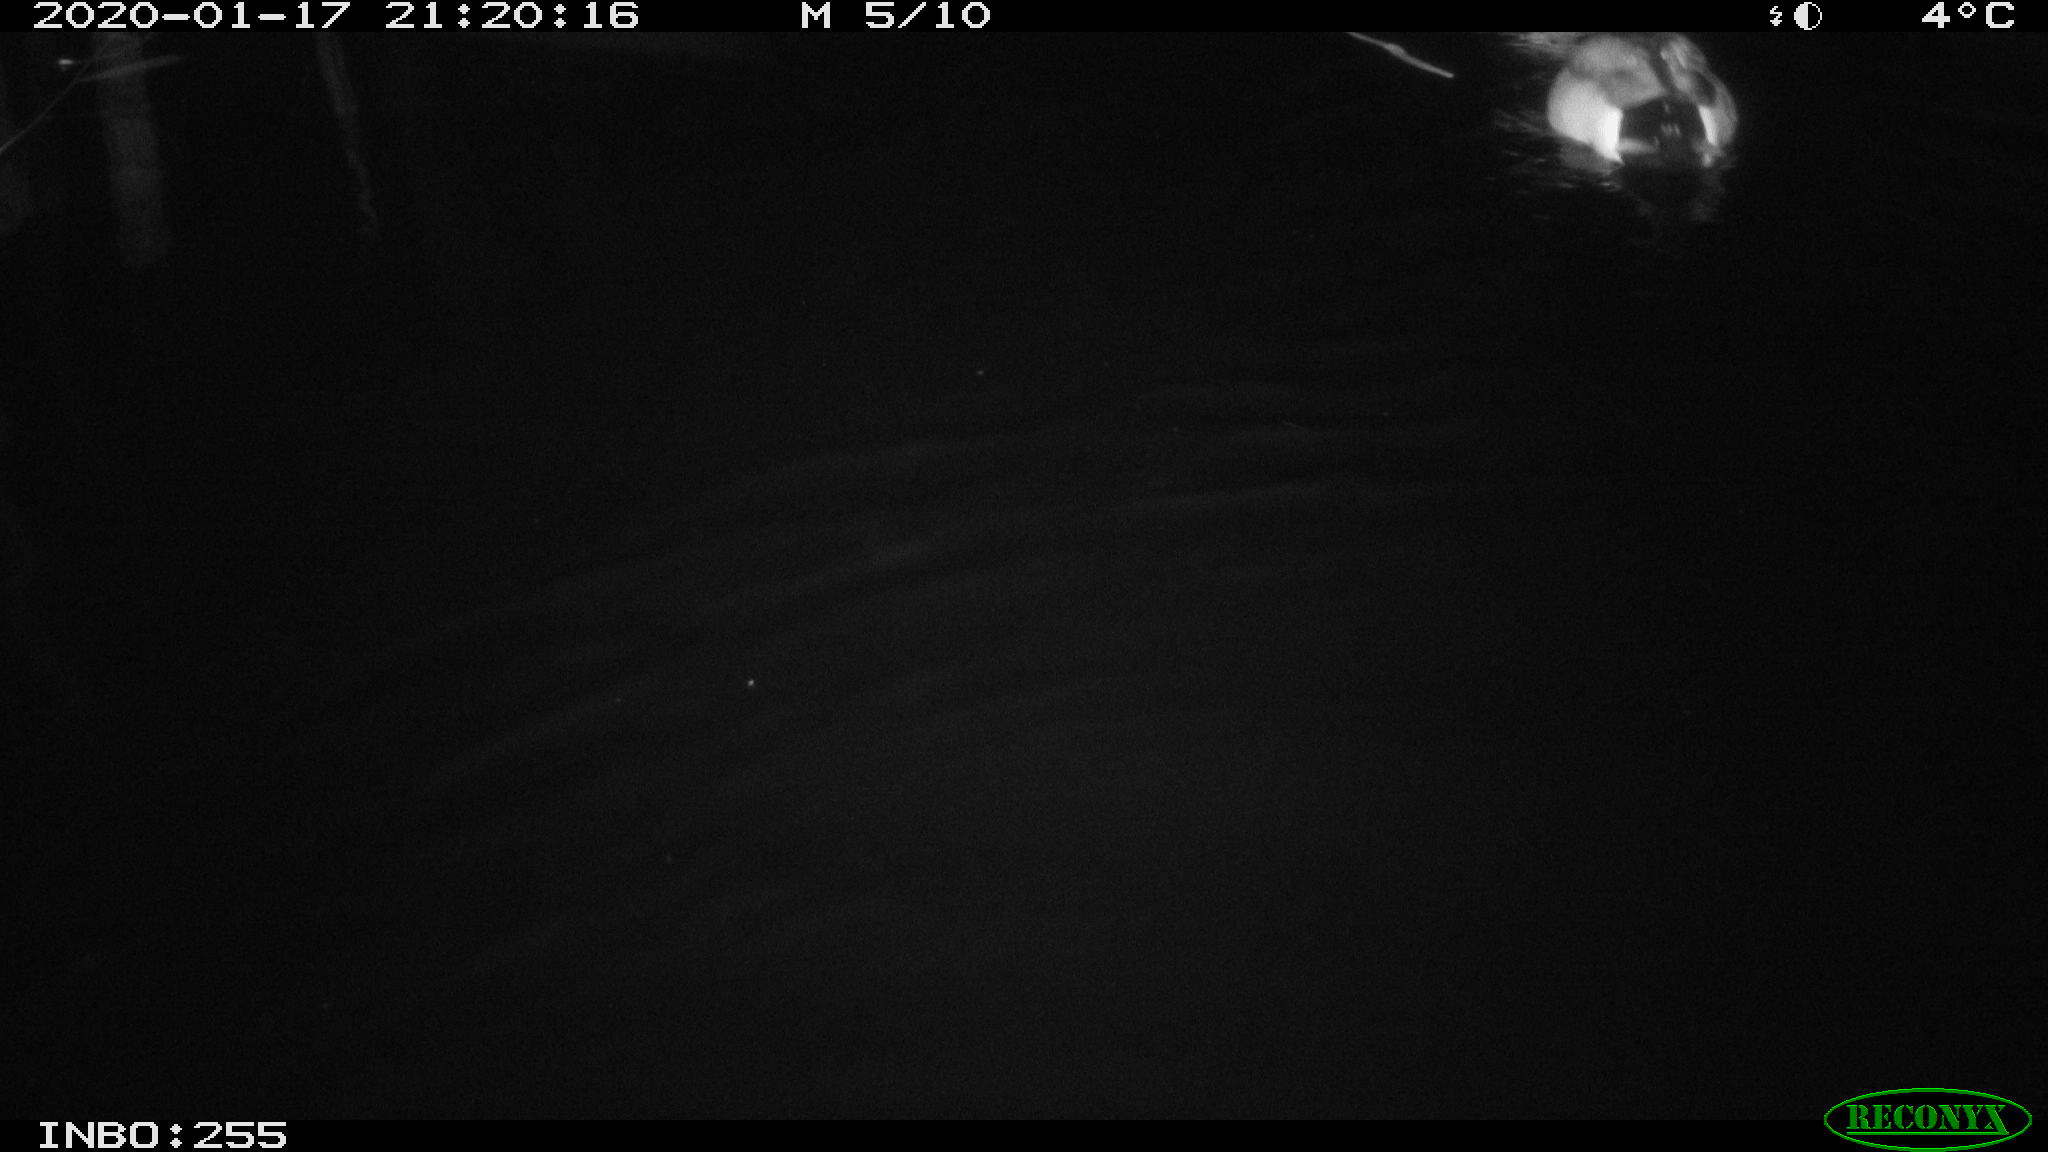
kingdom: Animalia
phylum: Chordata
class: Aves
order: Anseriformes
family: Anatidae
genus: Anas
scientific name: Anas platyrhynchos
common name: Mallard
